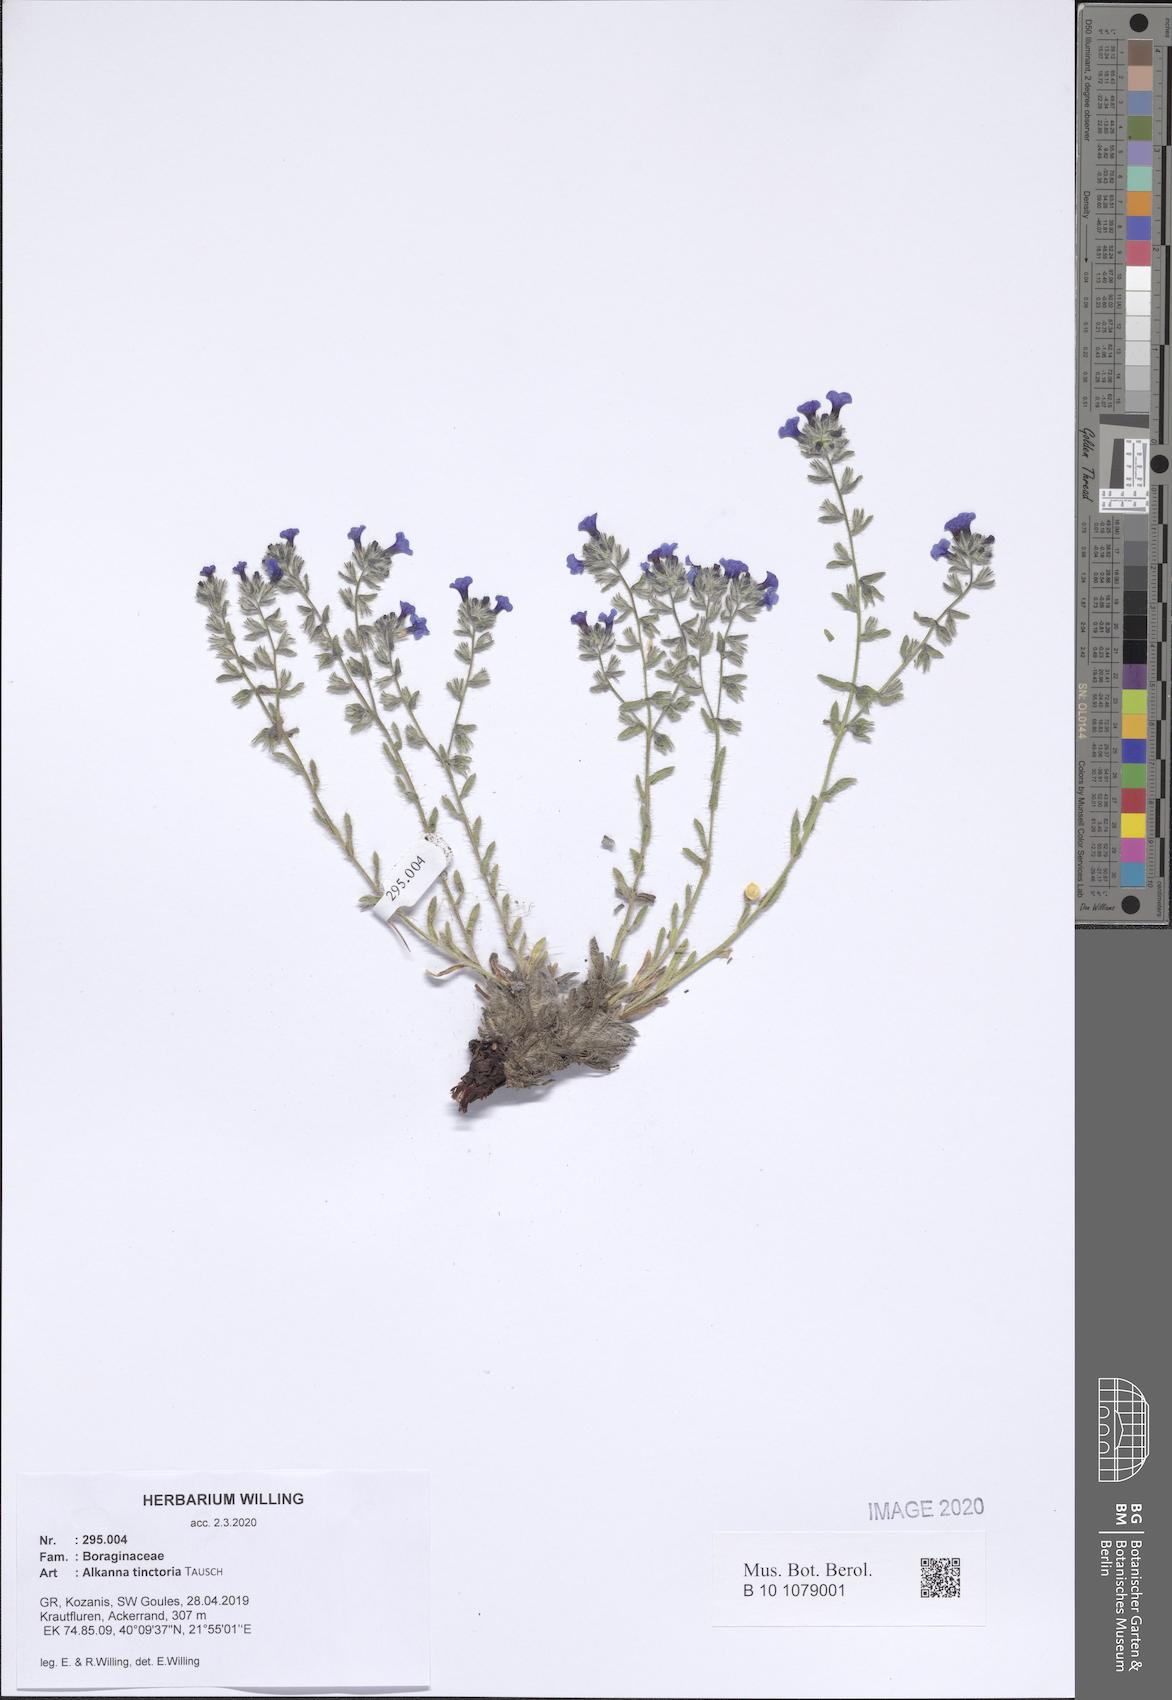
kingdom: Plantae
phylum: Tracheophyta
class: Magnoliopsida
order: Boraginales
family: Boraginaceae
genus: Alkanna
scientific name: Alkanna tinctoria
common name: Dyer's-alkanet
